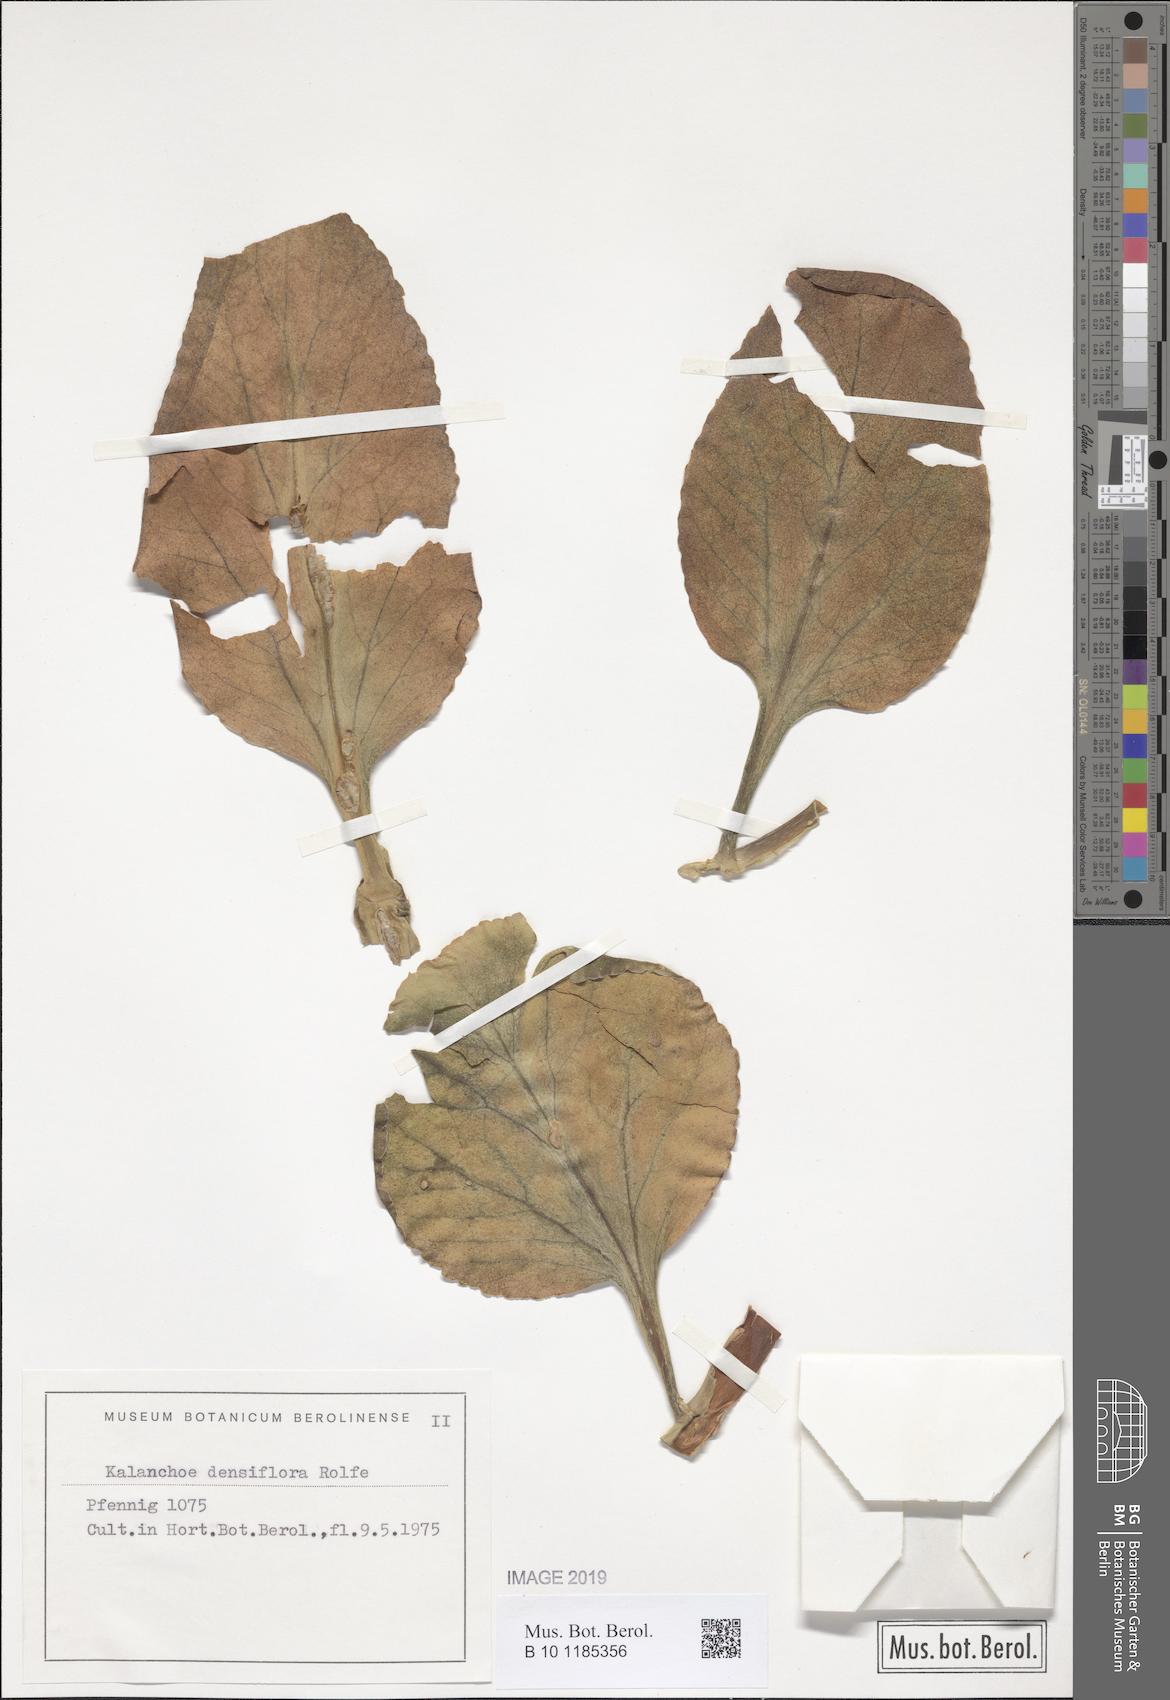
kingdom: Plantae
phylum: Tracheophyta
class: Magnoliopsida
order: Saxifragales
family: Crassulaceae
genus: Kalanchoe
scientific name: Kalanchoe densiflora
